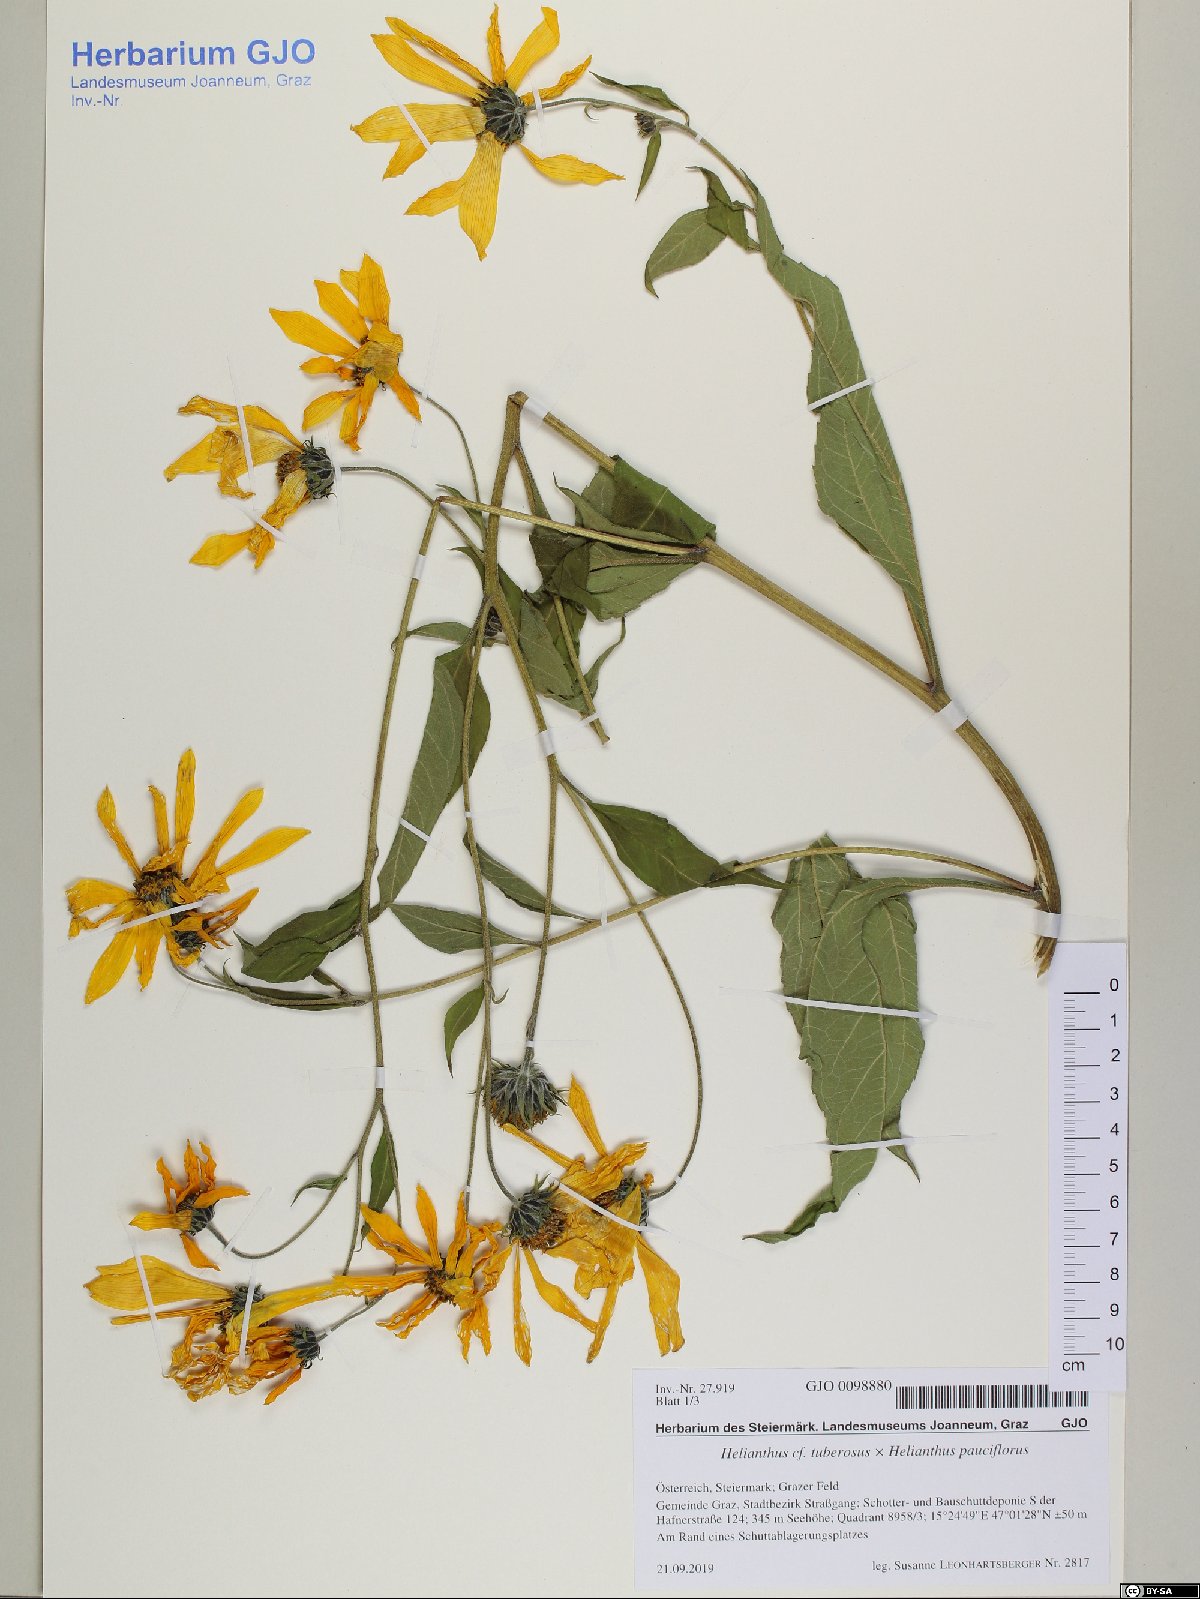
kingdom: Plantae
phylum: Tracheophyta
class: Magnoliopsida
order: Asterales
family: Asteraceae
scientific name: Asteraceae
